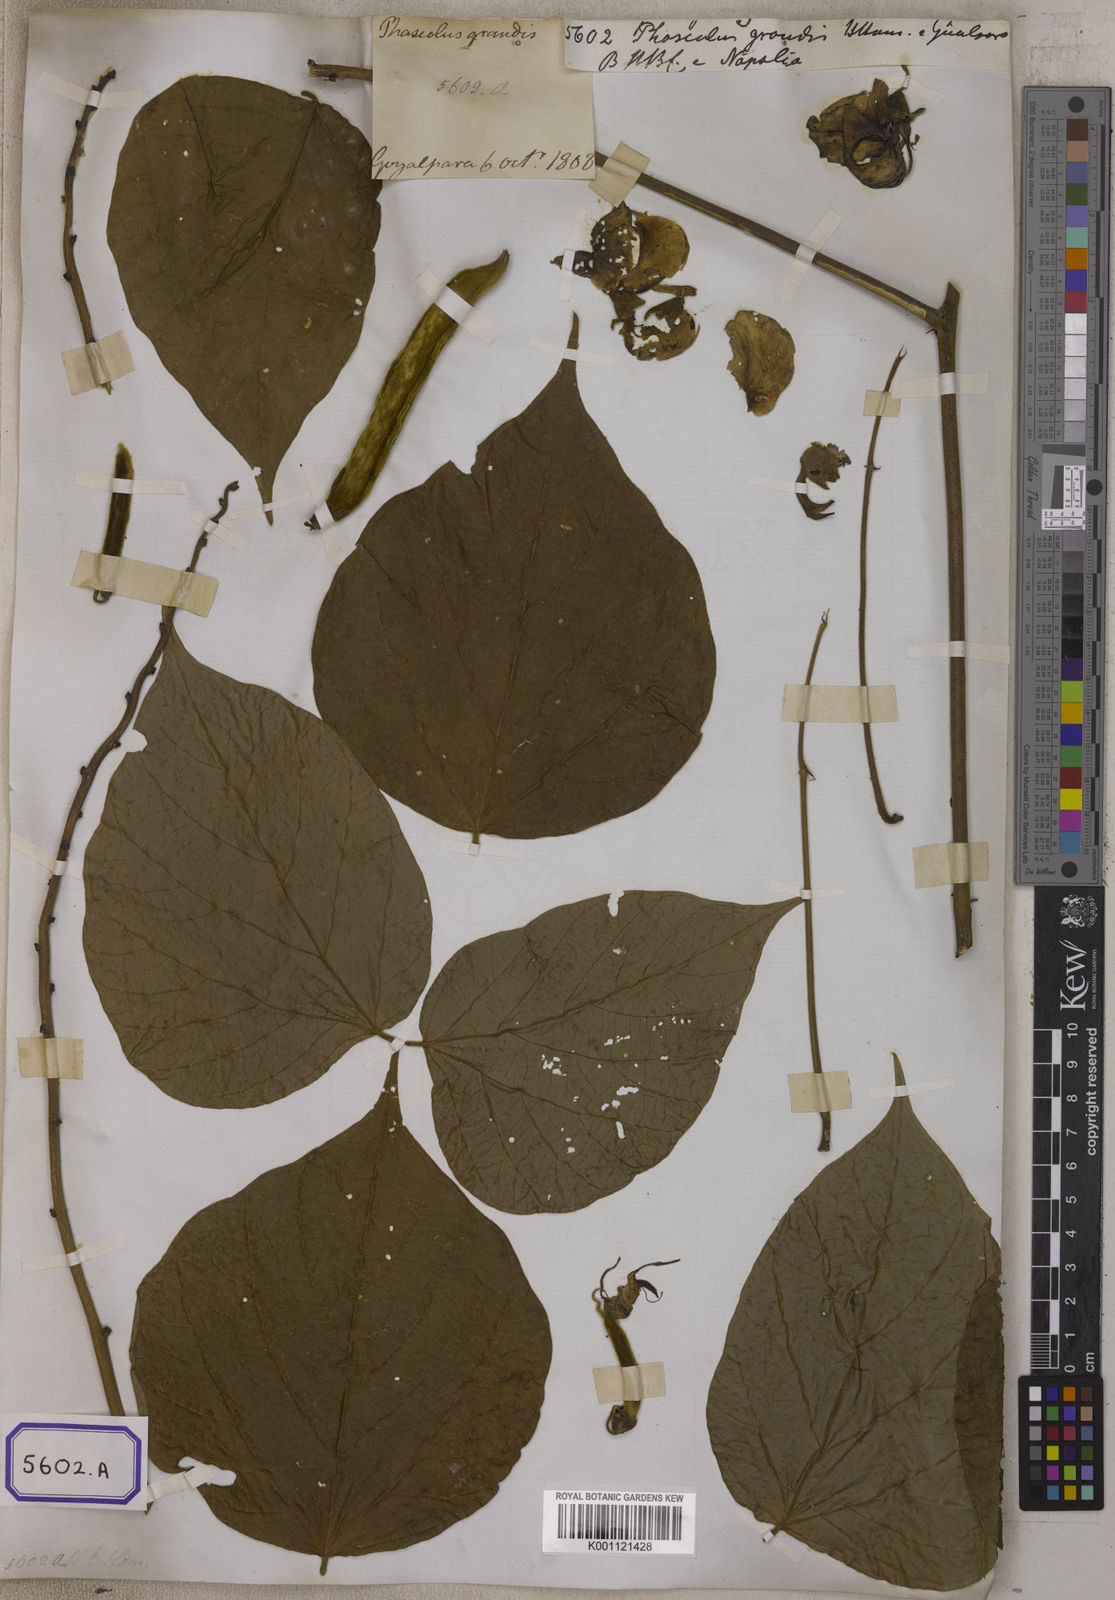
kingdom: Plantae
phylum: Tracheophyta
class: Magnoliopsida
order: Fabales
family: Fabaceae
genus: Macroptilium
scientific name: Macroptilium gracile
